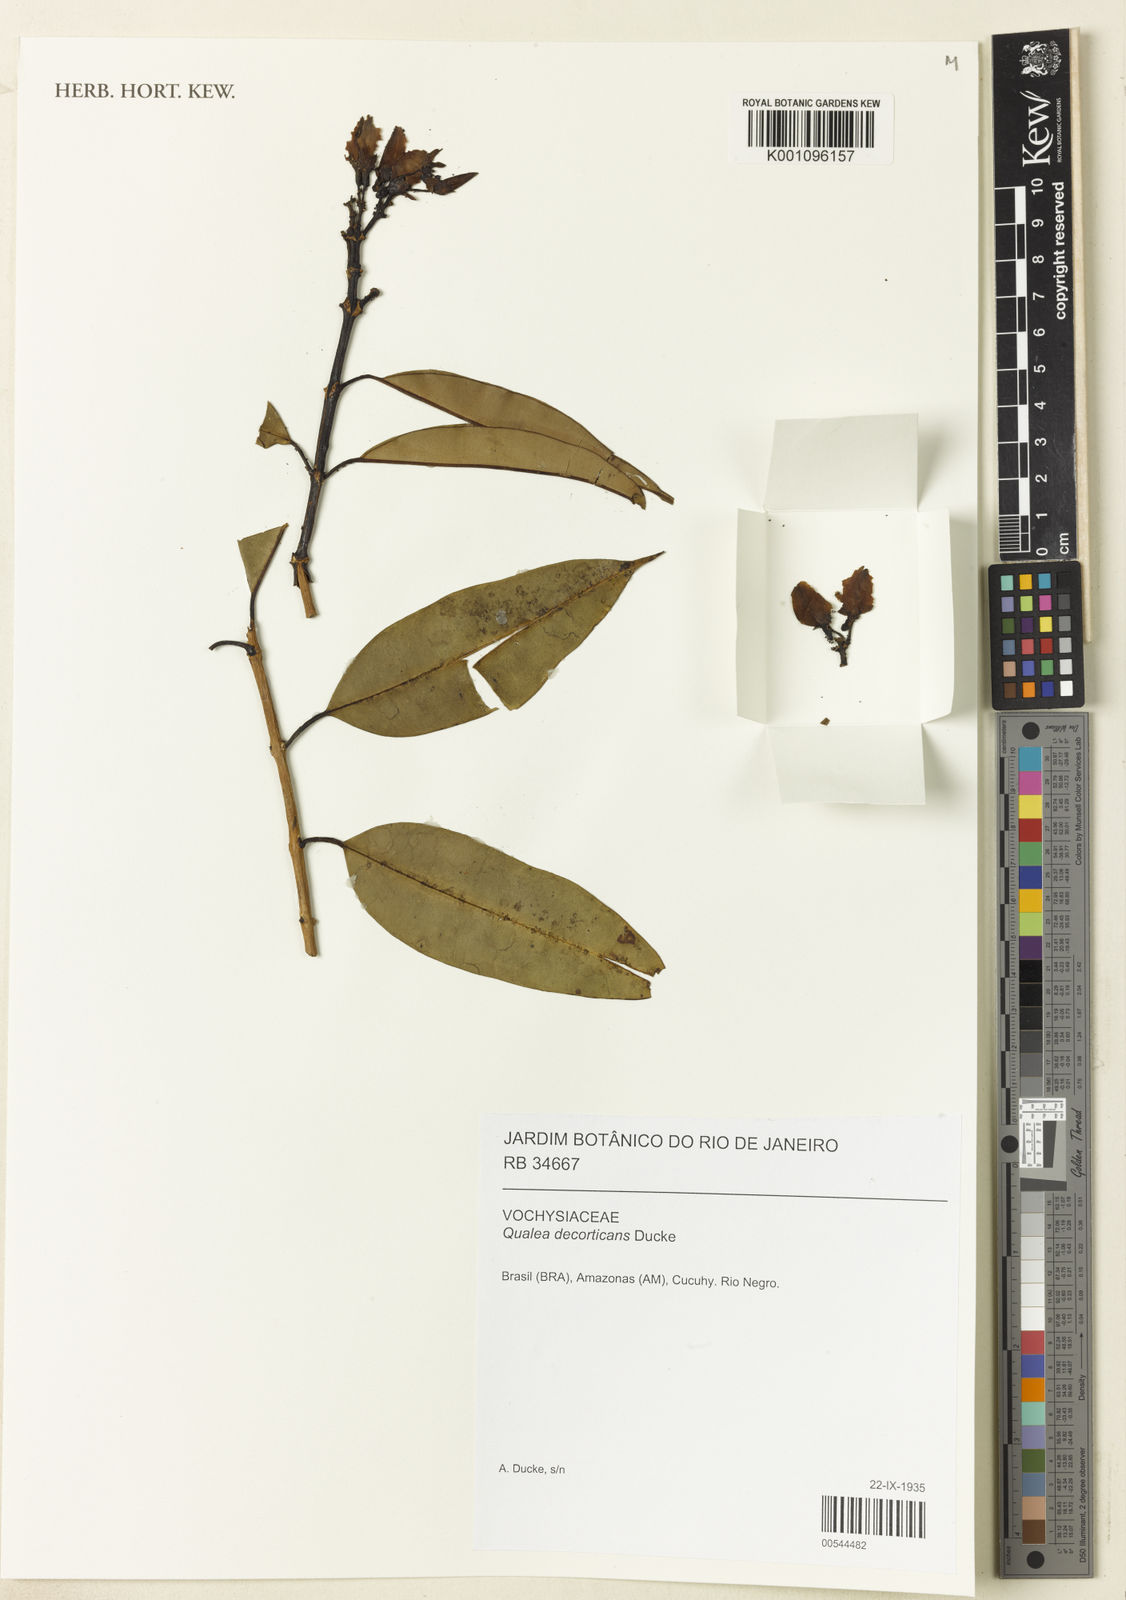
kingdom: Plantae
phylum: Tracheophyta
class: Magnoliopsida
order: Myrtales
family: Vochysiaceae
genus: Qualea
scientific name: Qualea decorticans
